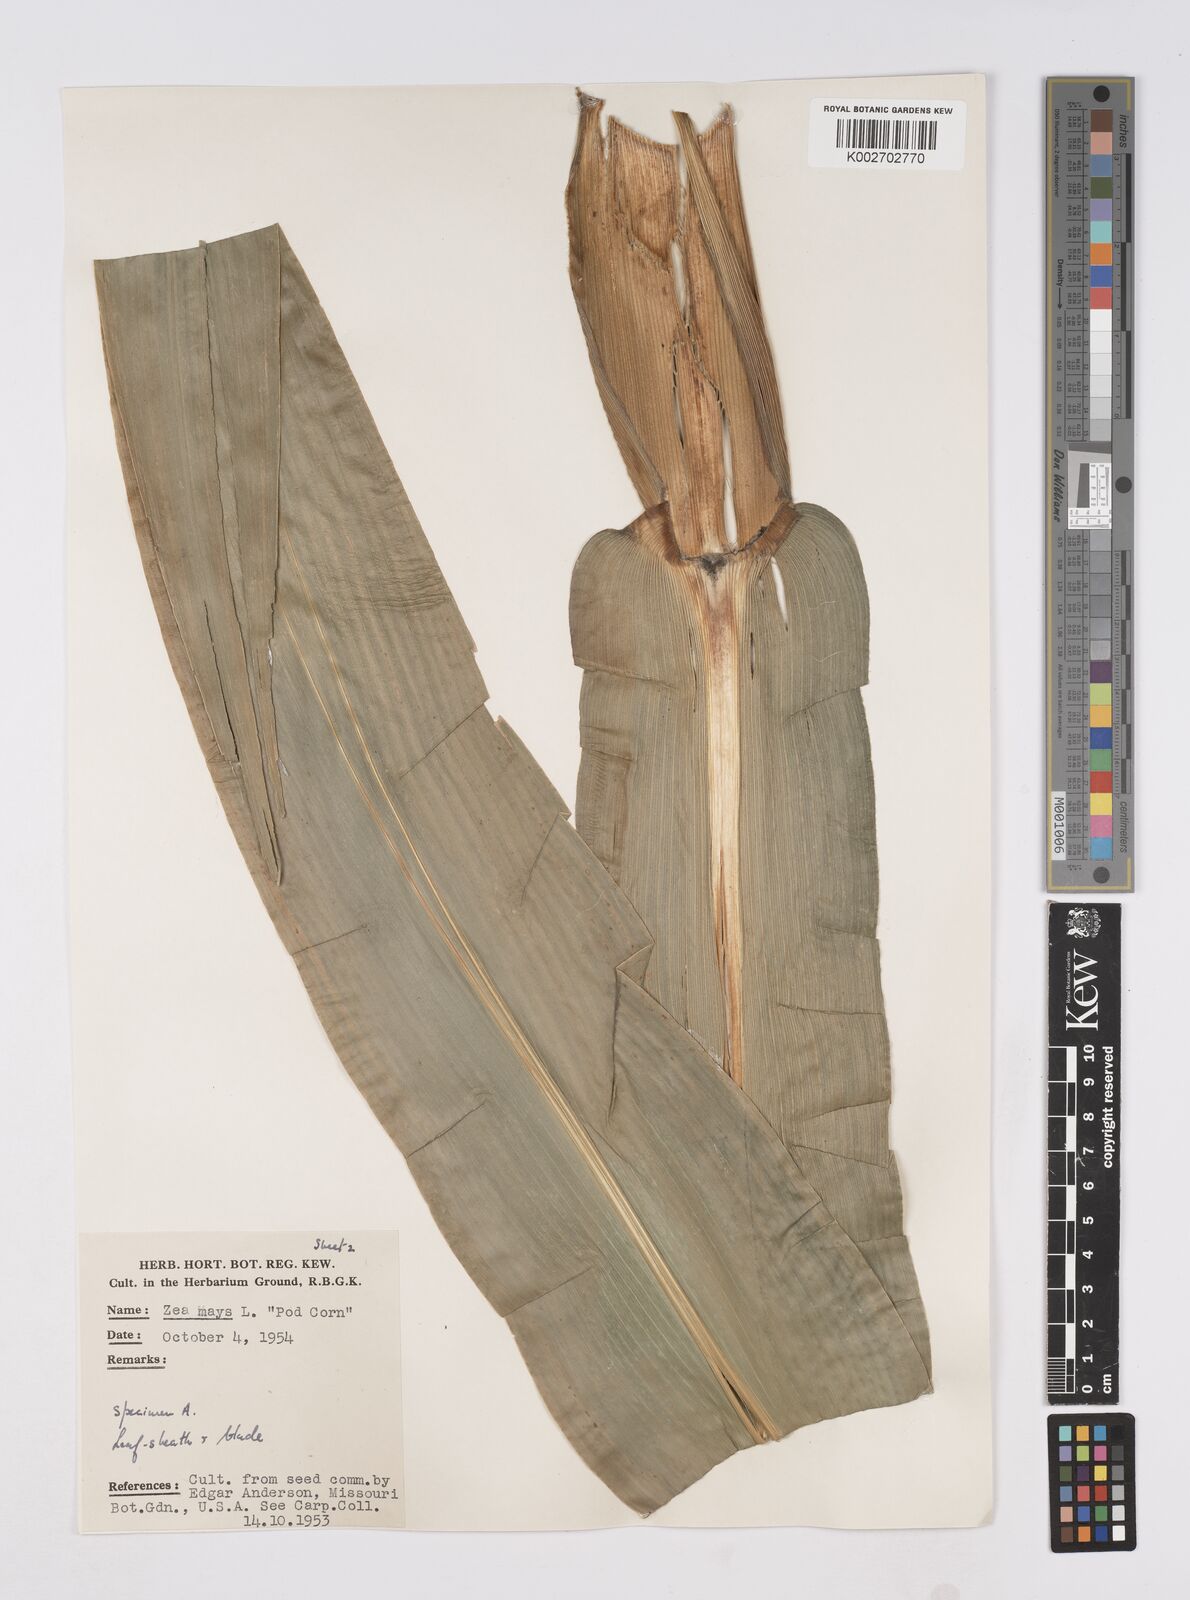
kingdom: Plantae
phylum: Tracheophyta
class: Liliopsida
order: Poales
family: Poaceae
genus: Zea
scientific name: Zea mays
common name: Maize
